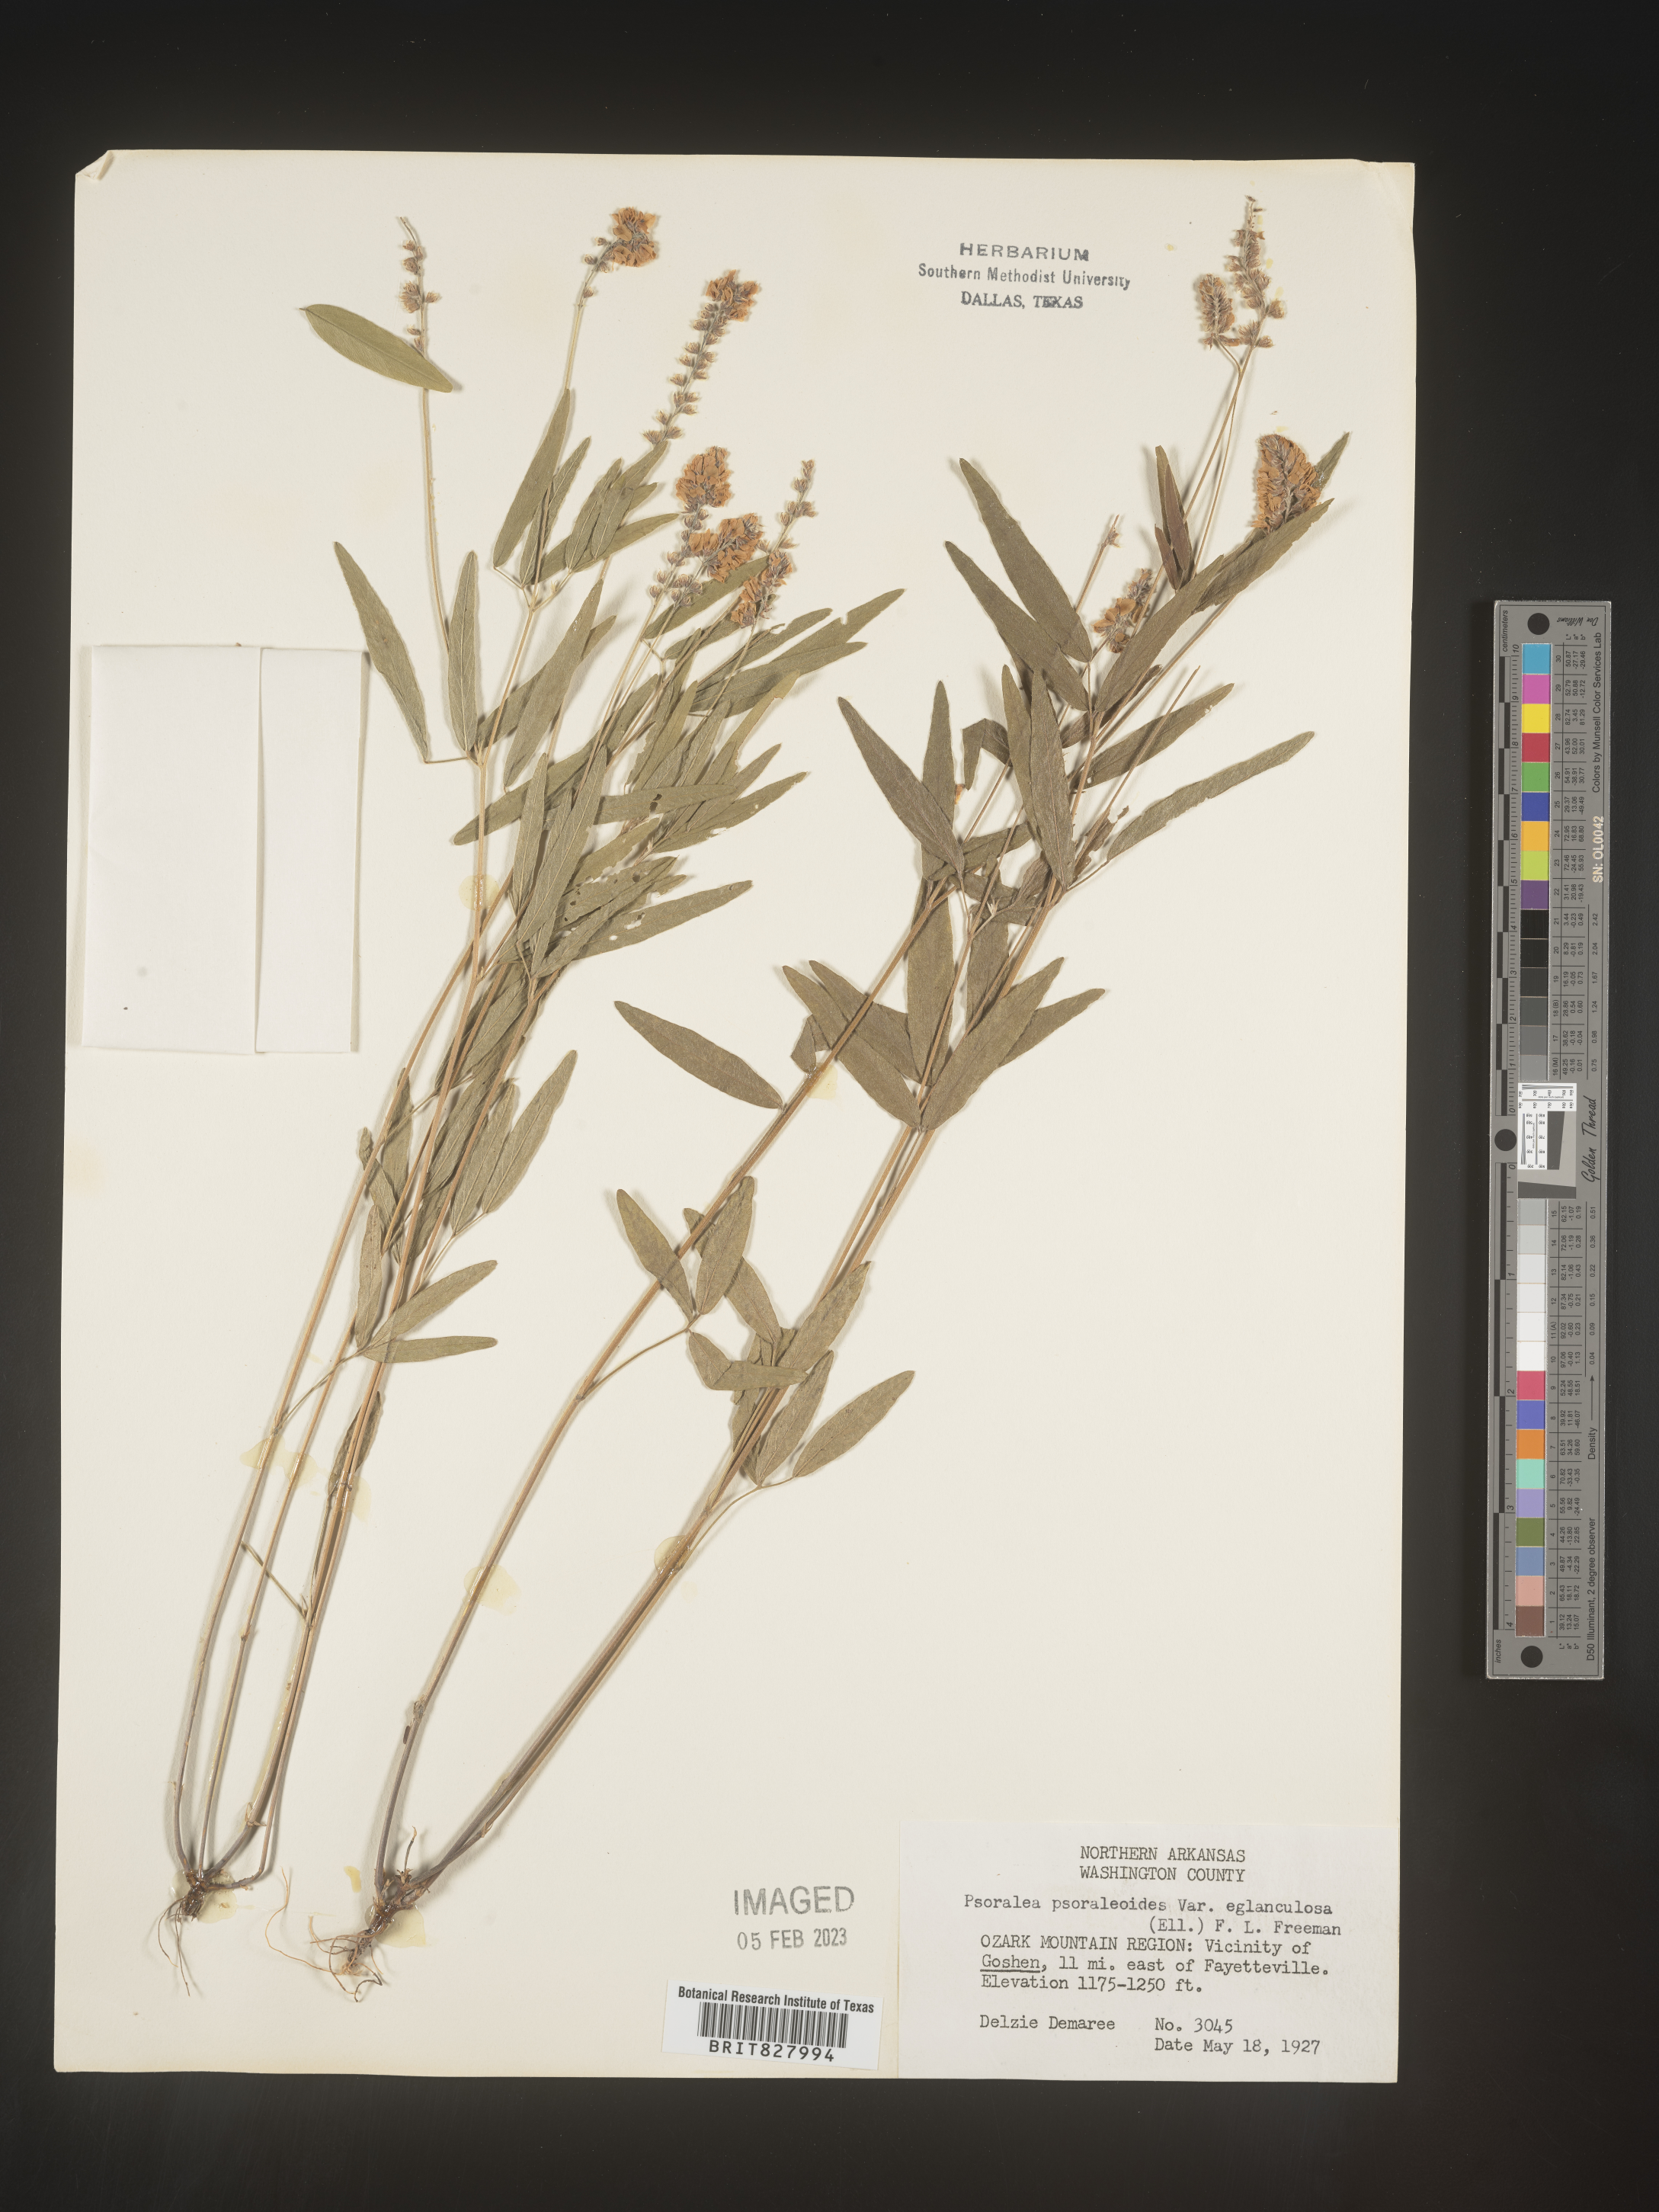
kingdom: Plantae
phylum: Tracheophyta
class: Magnoliopsida
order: Fabales
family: Fabaceae
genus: Orbexilum
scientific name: Orbexilum pedunculatum
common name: Sampson's snakeroot
